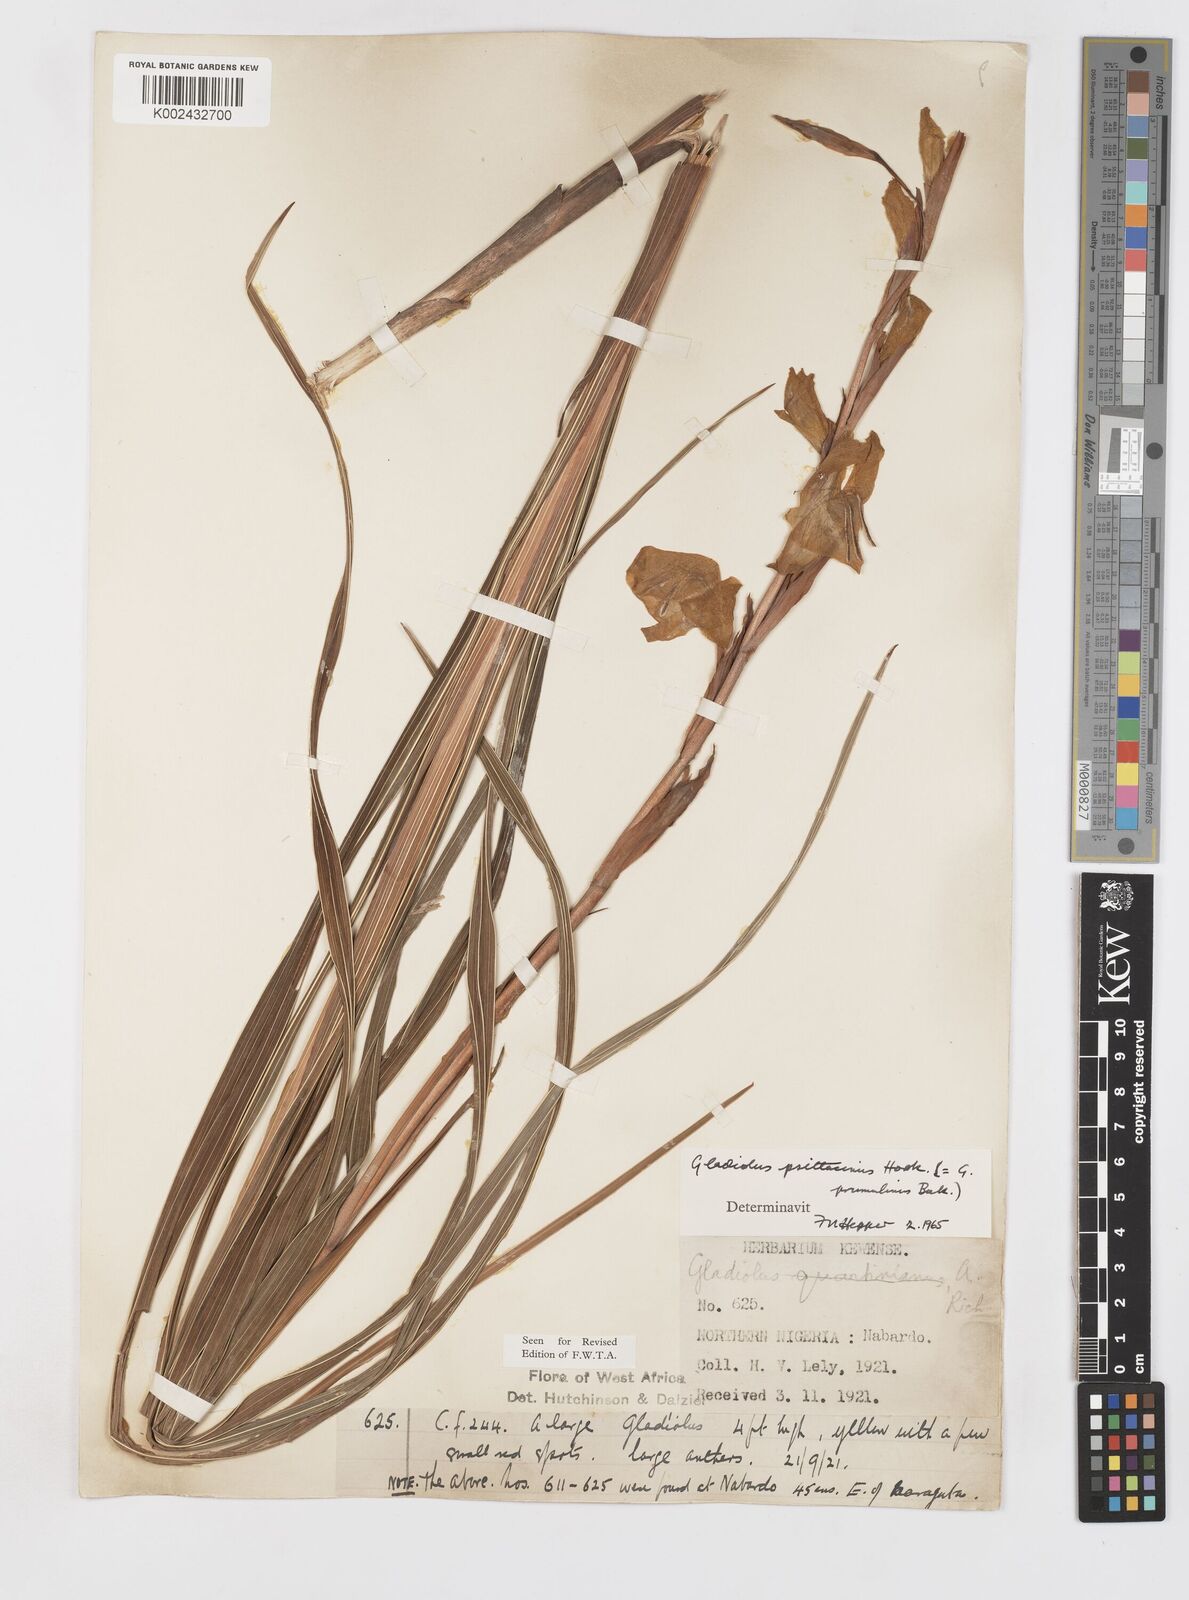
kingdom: Plantae
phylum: Tracheophyta
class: Liliopsida
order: Asparagales
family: Iridaceae
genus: Gladiolus
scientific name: Gladiolus dalenii
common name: Cornflag
